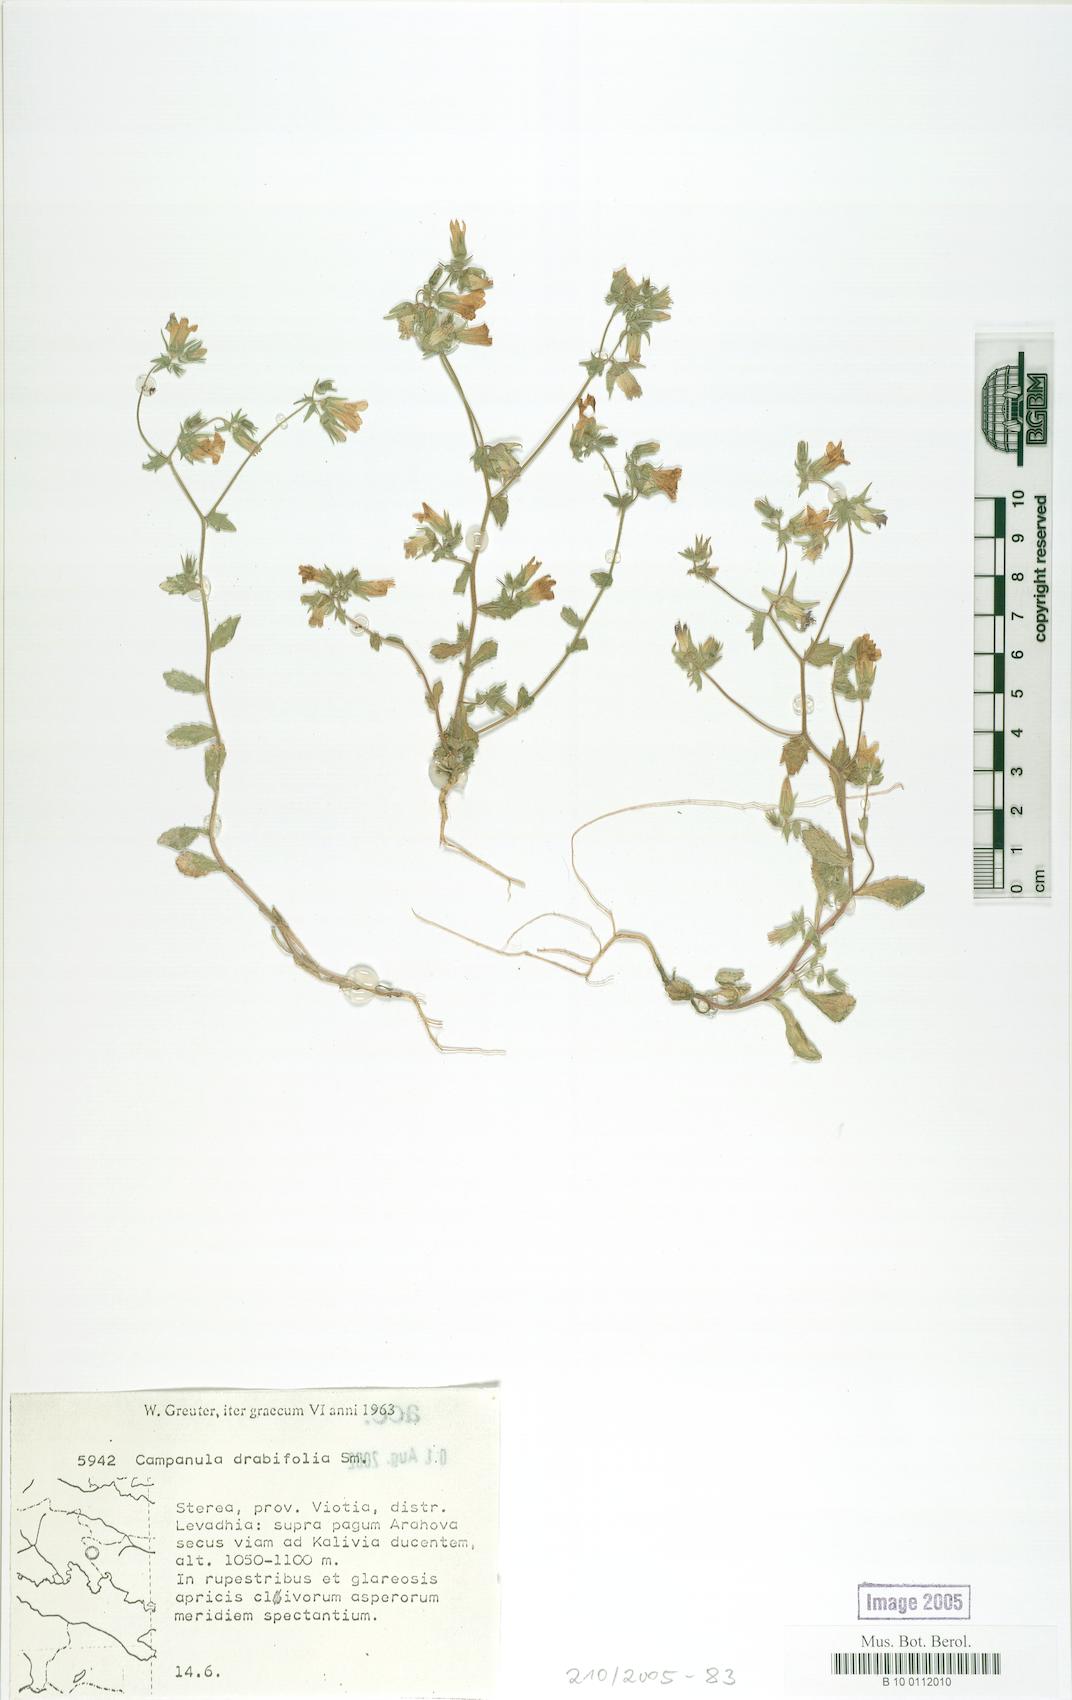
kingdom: Plantae
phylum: Tracheophyta
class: Magnoliopsida
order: Asterales
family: Campanulaceae
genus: Campanula
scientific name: Campanula drabifolia
